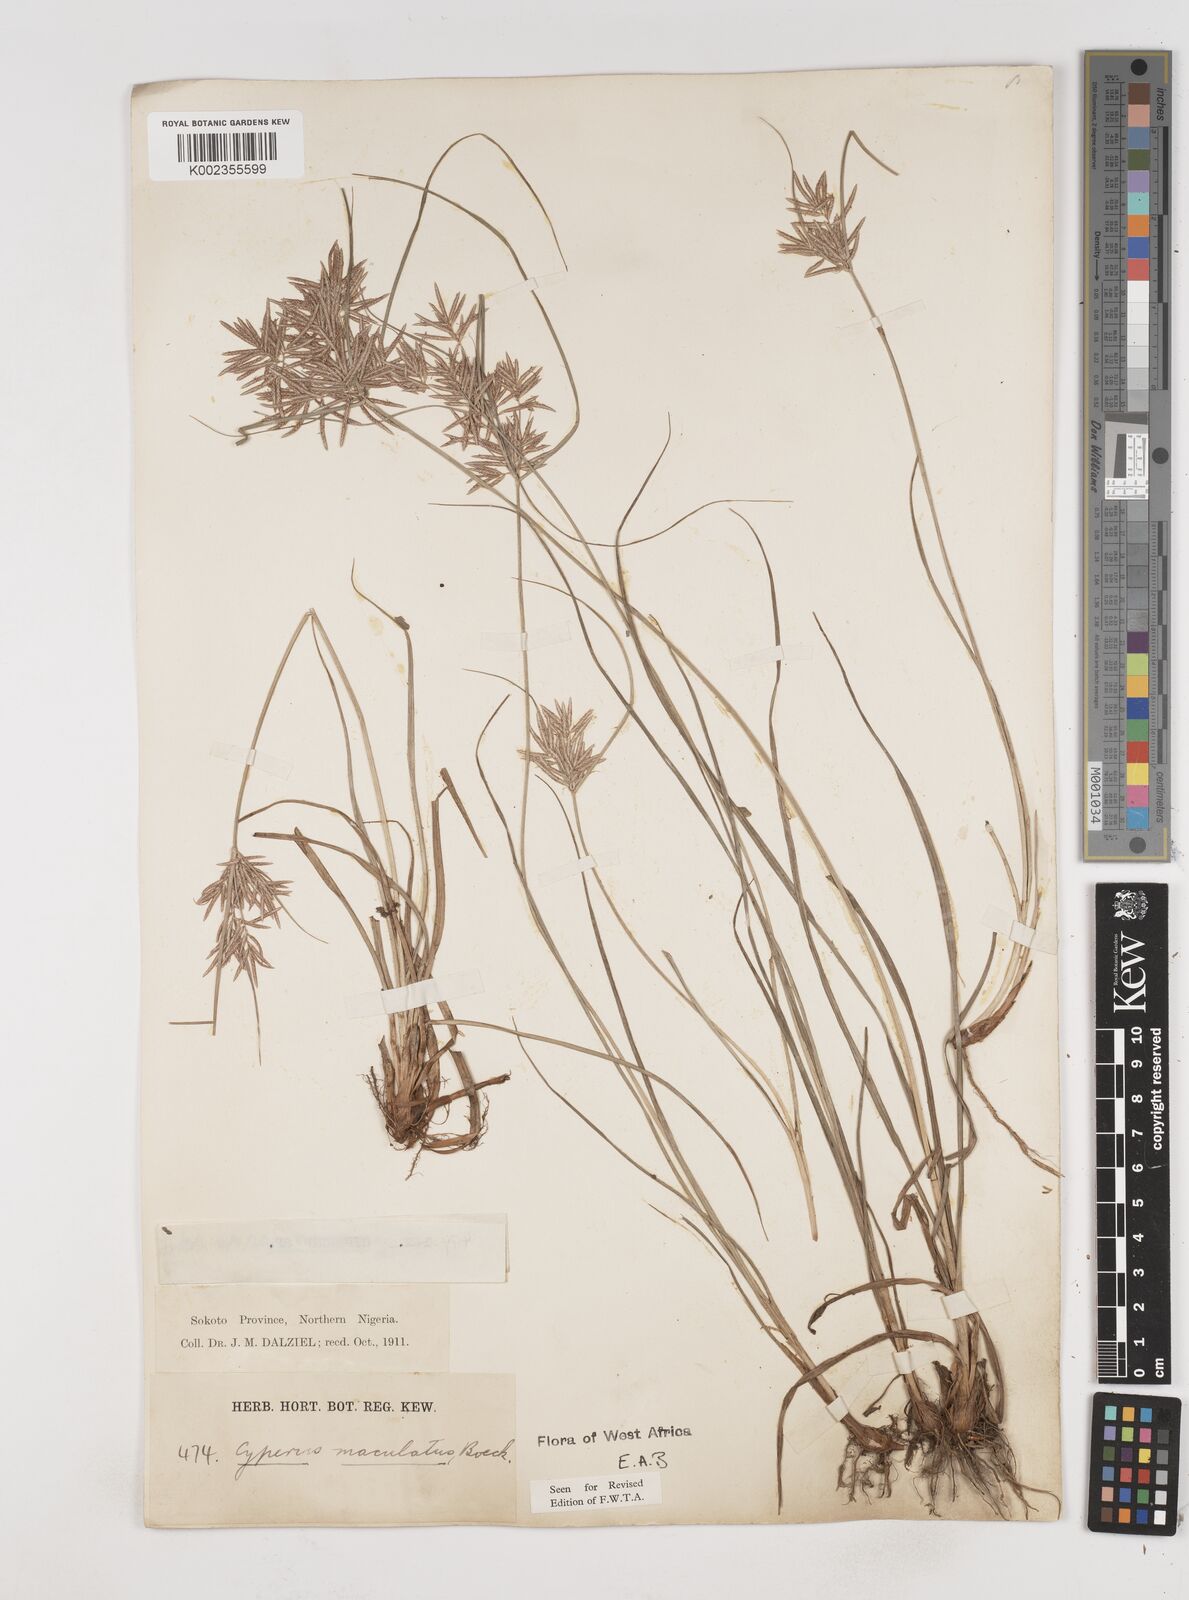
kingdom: Plantae
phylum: Tracheophyta
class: Liliopsida
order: Poales
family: Cyperaceae
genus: Cyperus
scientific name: Cyperus maculatus
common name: Maculated sedge
